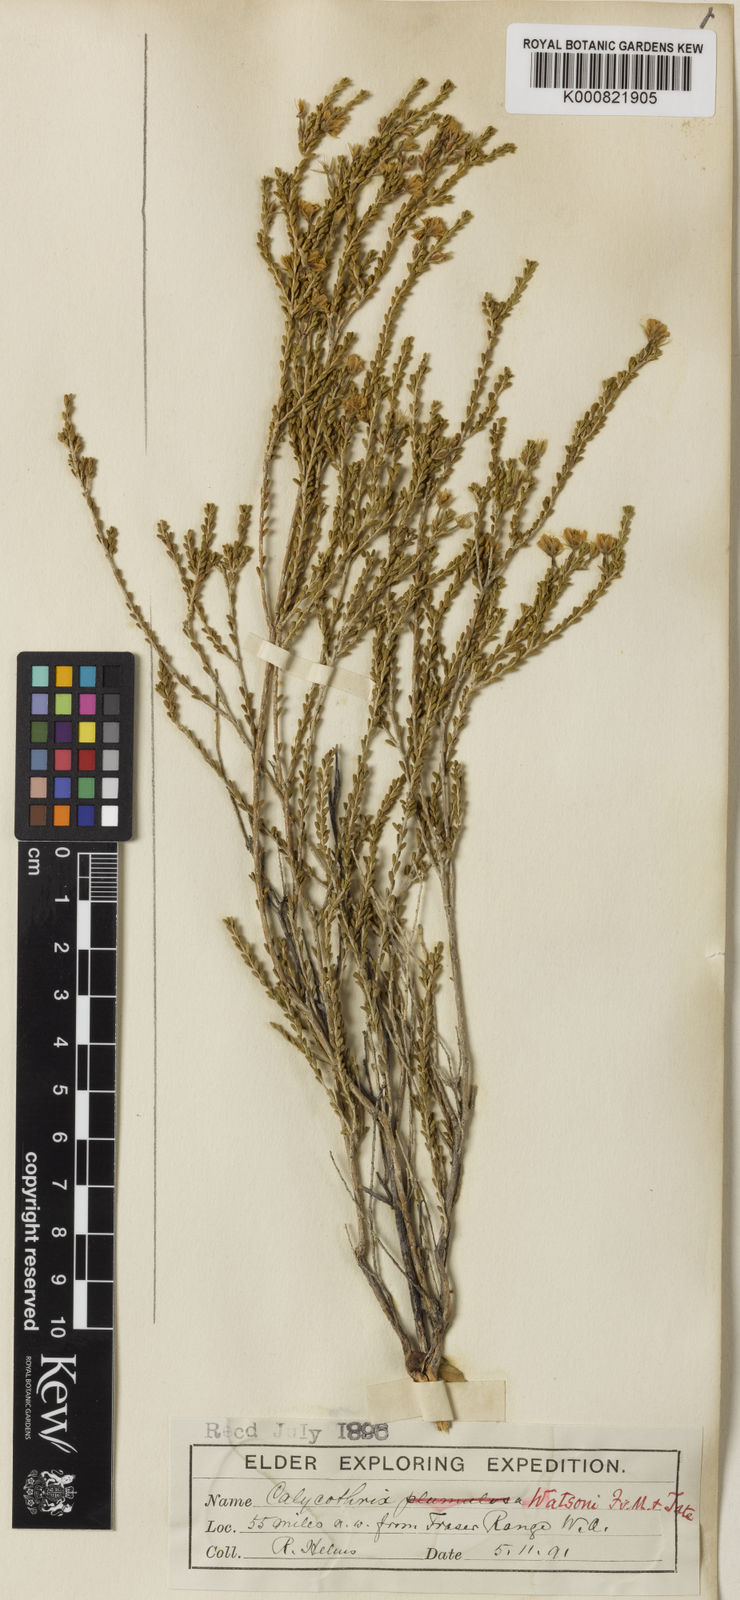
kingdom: Plantae
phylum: Tracheophyta
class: Magnoliopsida
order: Myrtales
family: Myrtaceae
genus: Calytrix
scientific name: Calytrix strigosa
